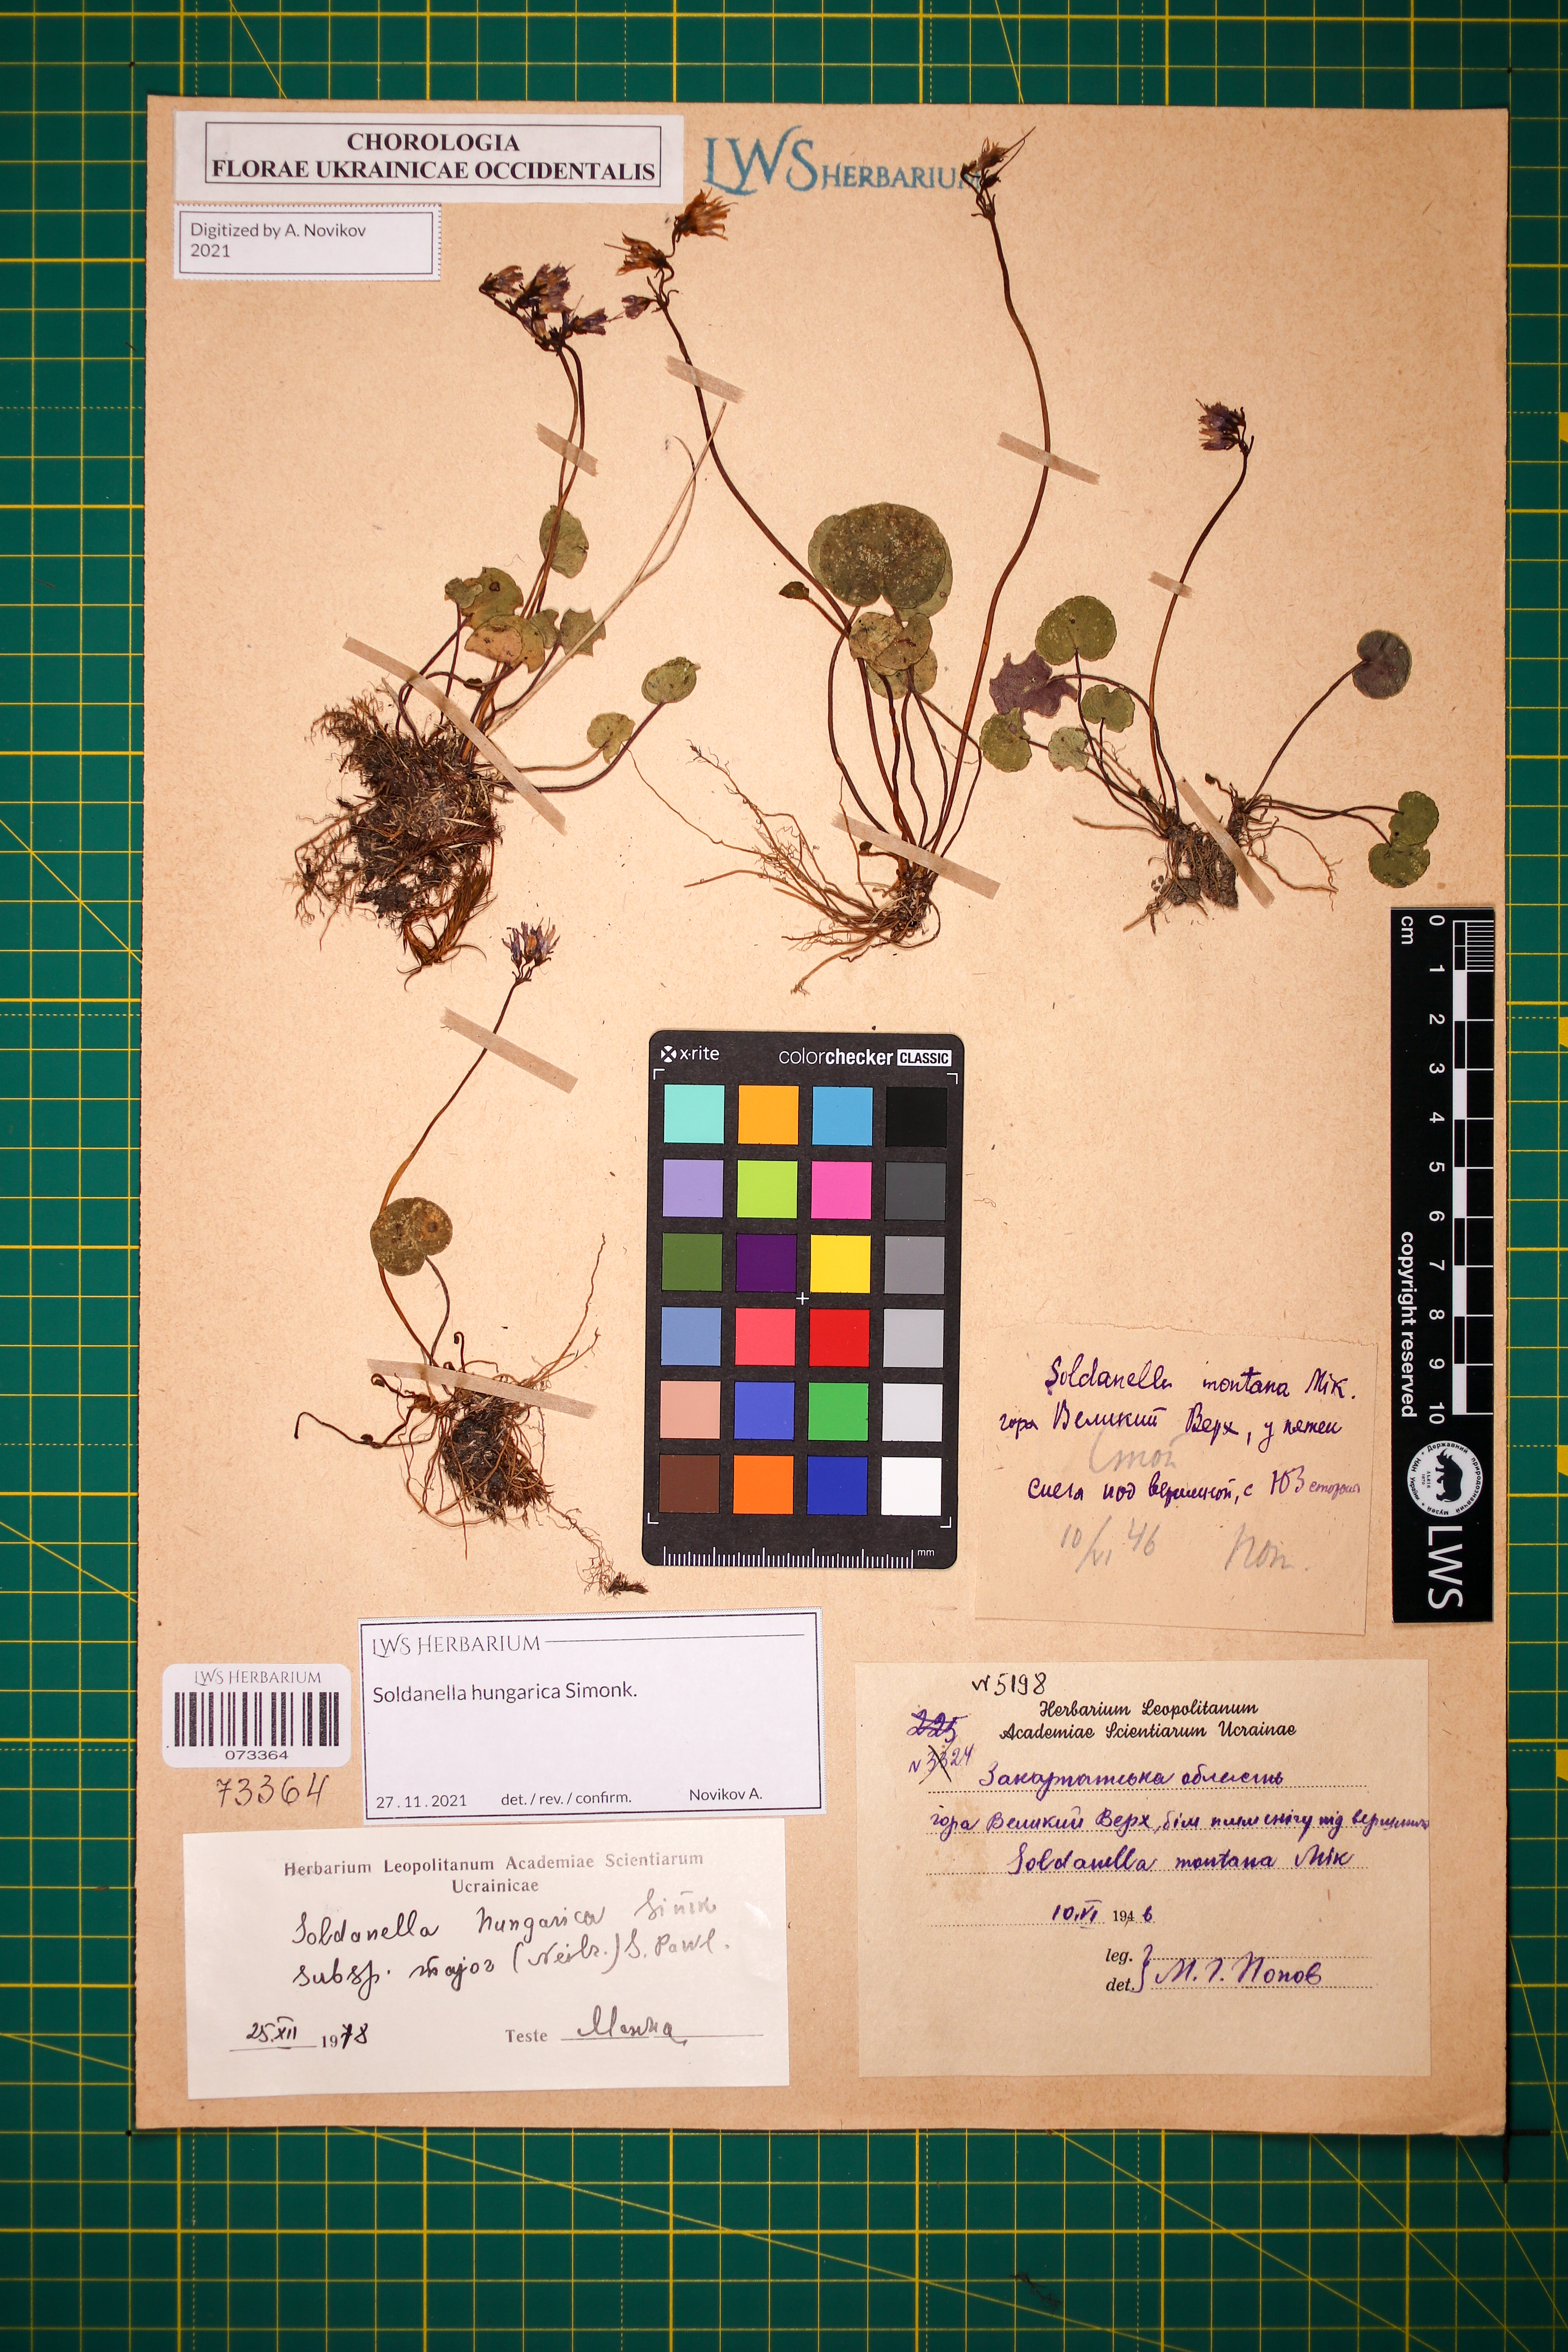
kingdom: Plantae
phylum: Tracheophyta
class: Magnoliopsida
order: Ericales
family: Primulaceae
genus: Soldanella
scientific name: Soldanella hungarica
